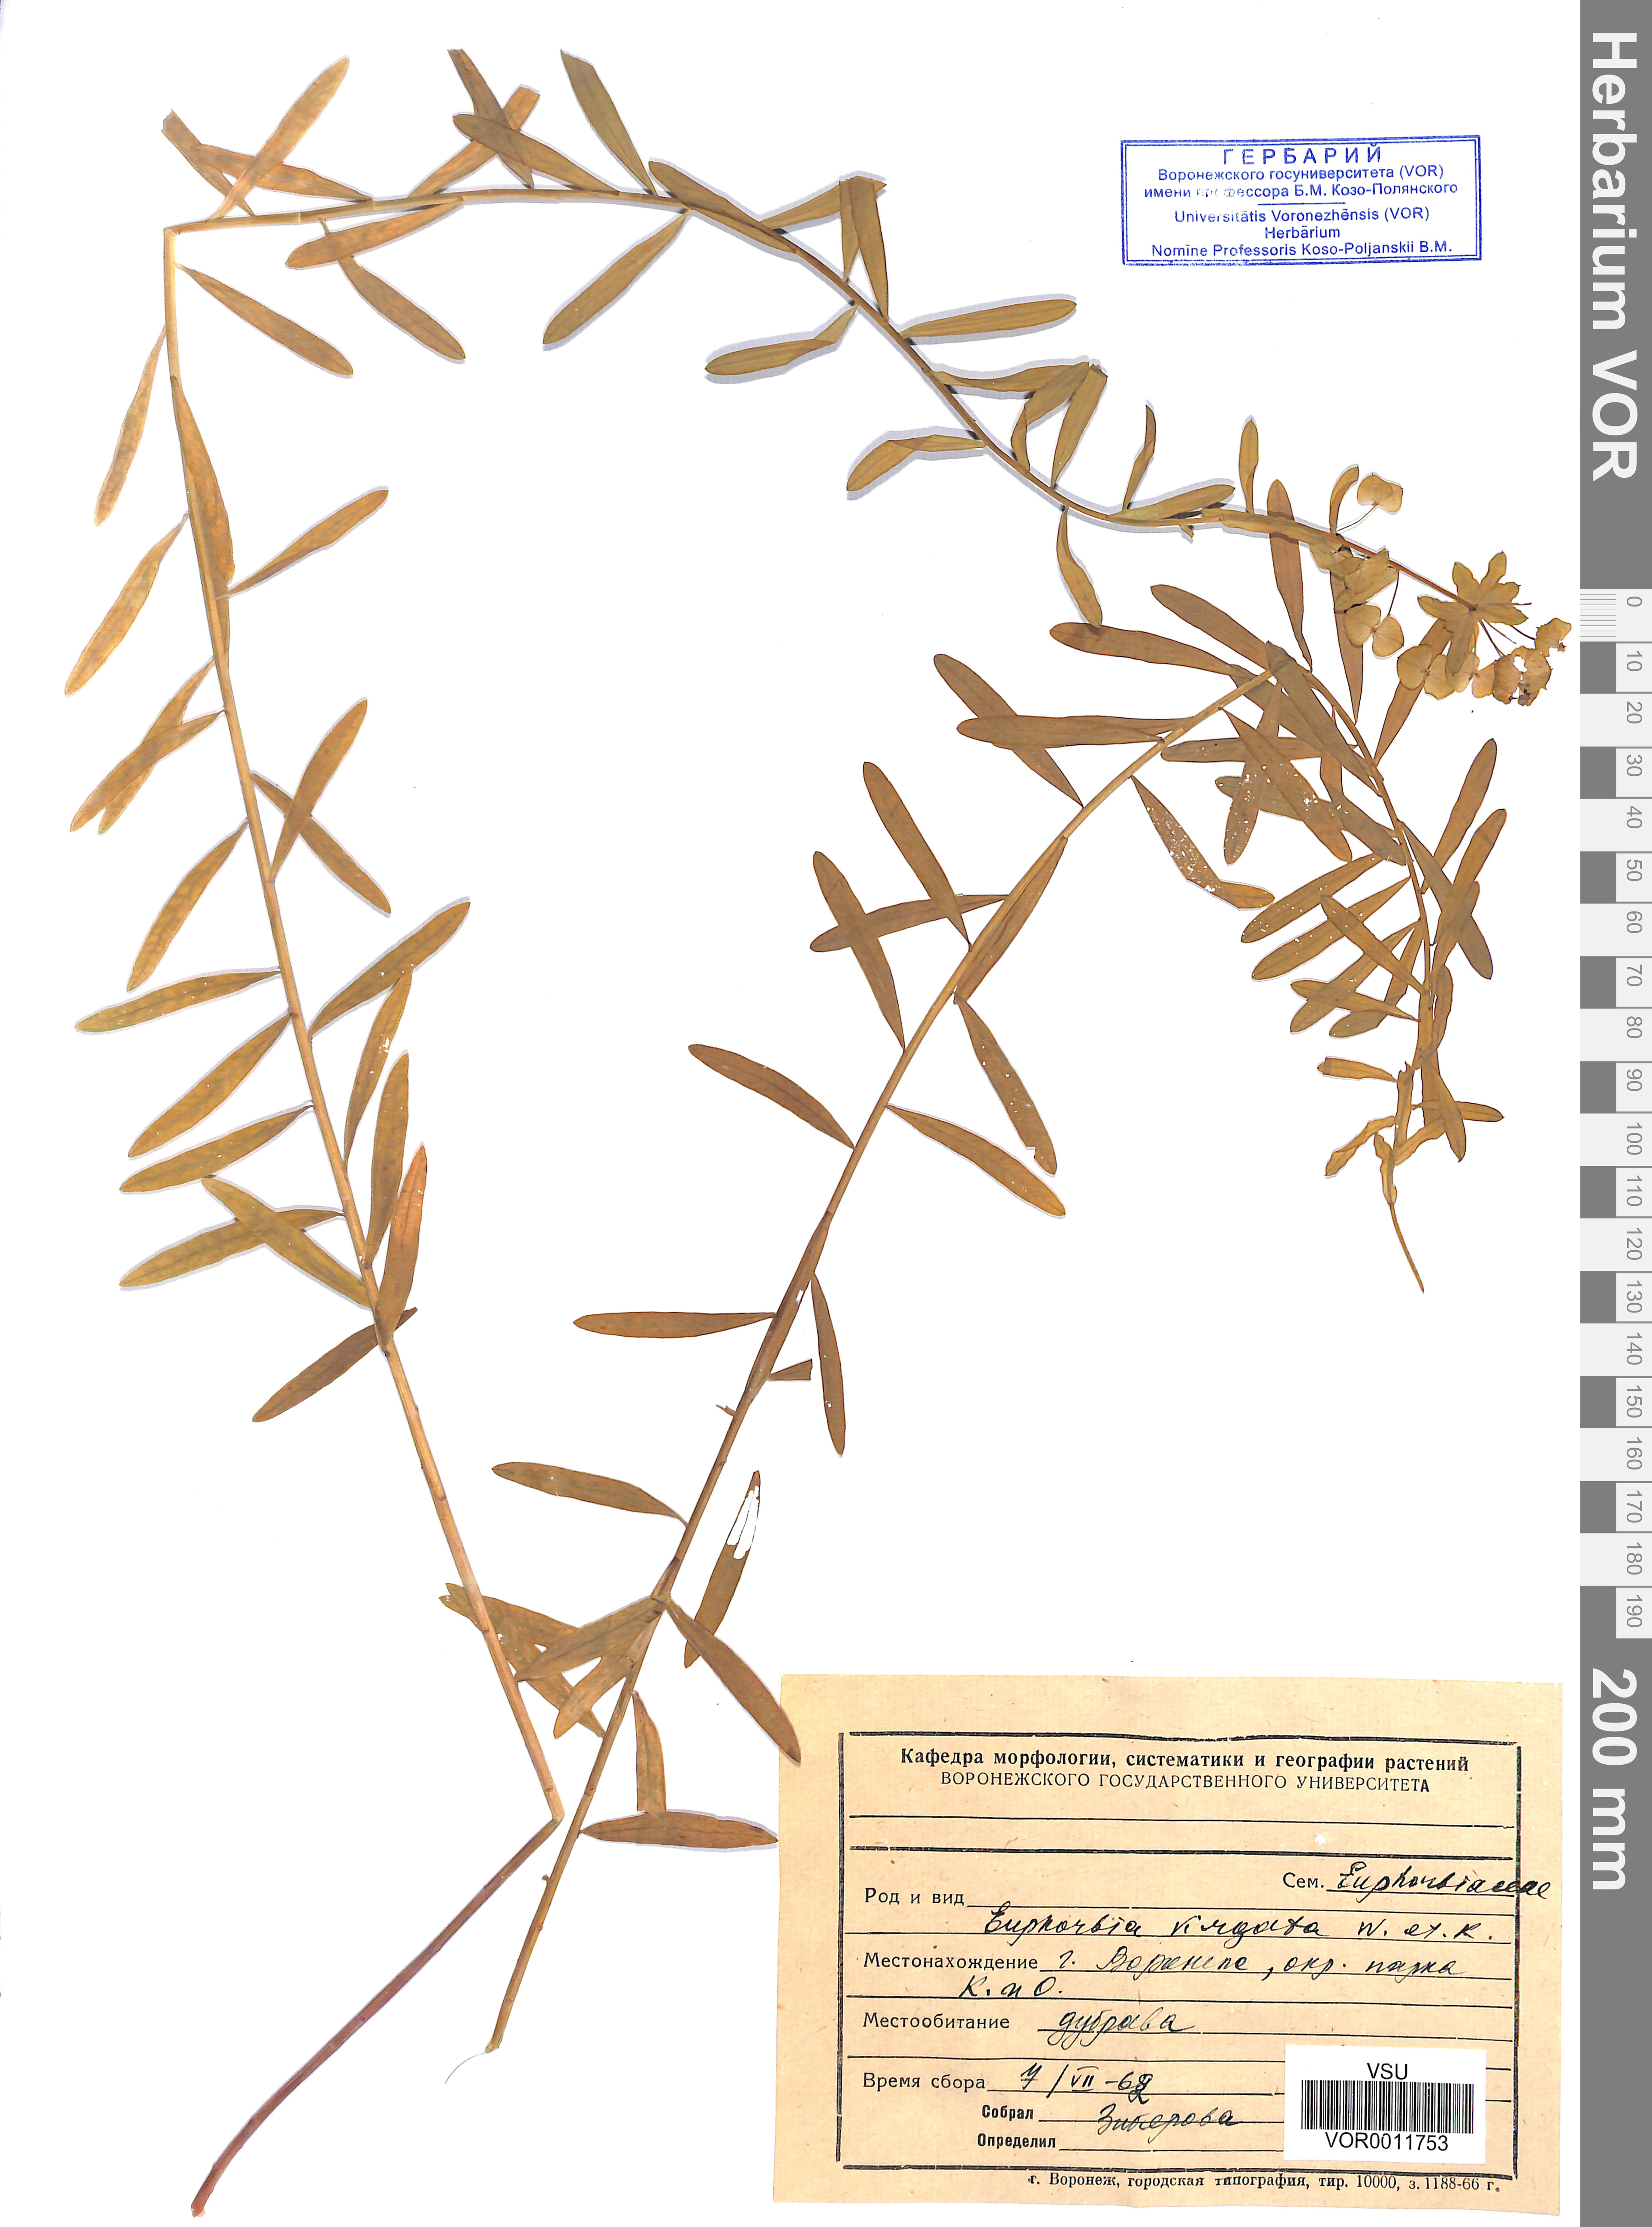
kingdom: Plantae
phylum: Tracheophyta
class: Magnoliopsida
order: Malpighiales
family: Euphorbiaceae
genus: Euphorbia
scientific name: Euphorbia virgata
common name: Leafy spurge
